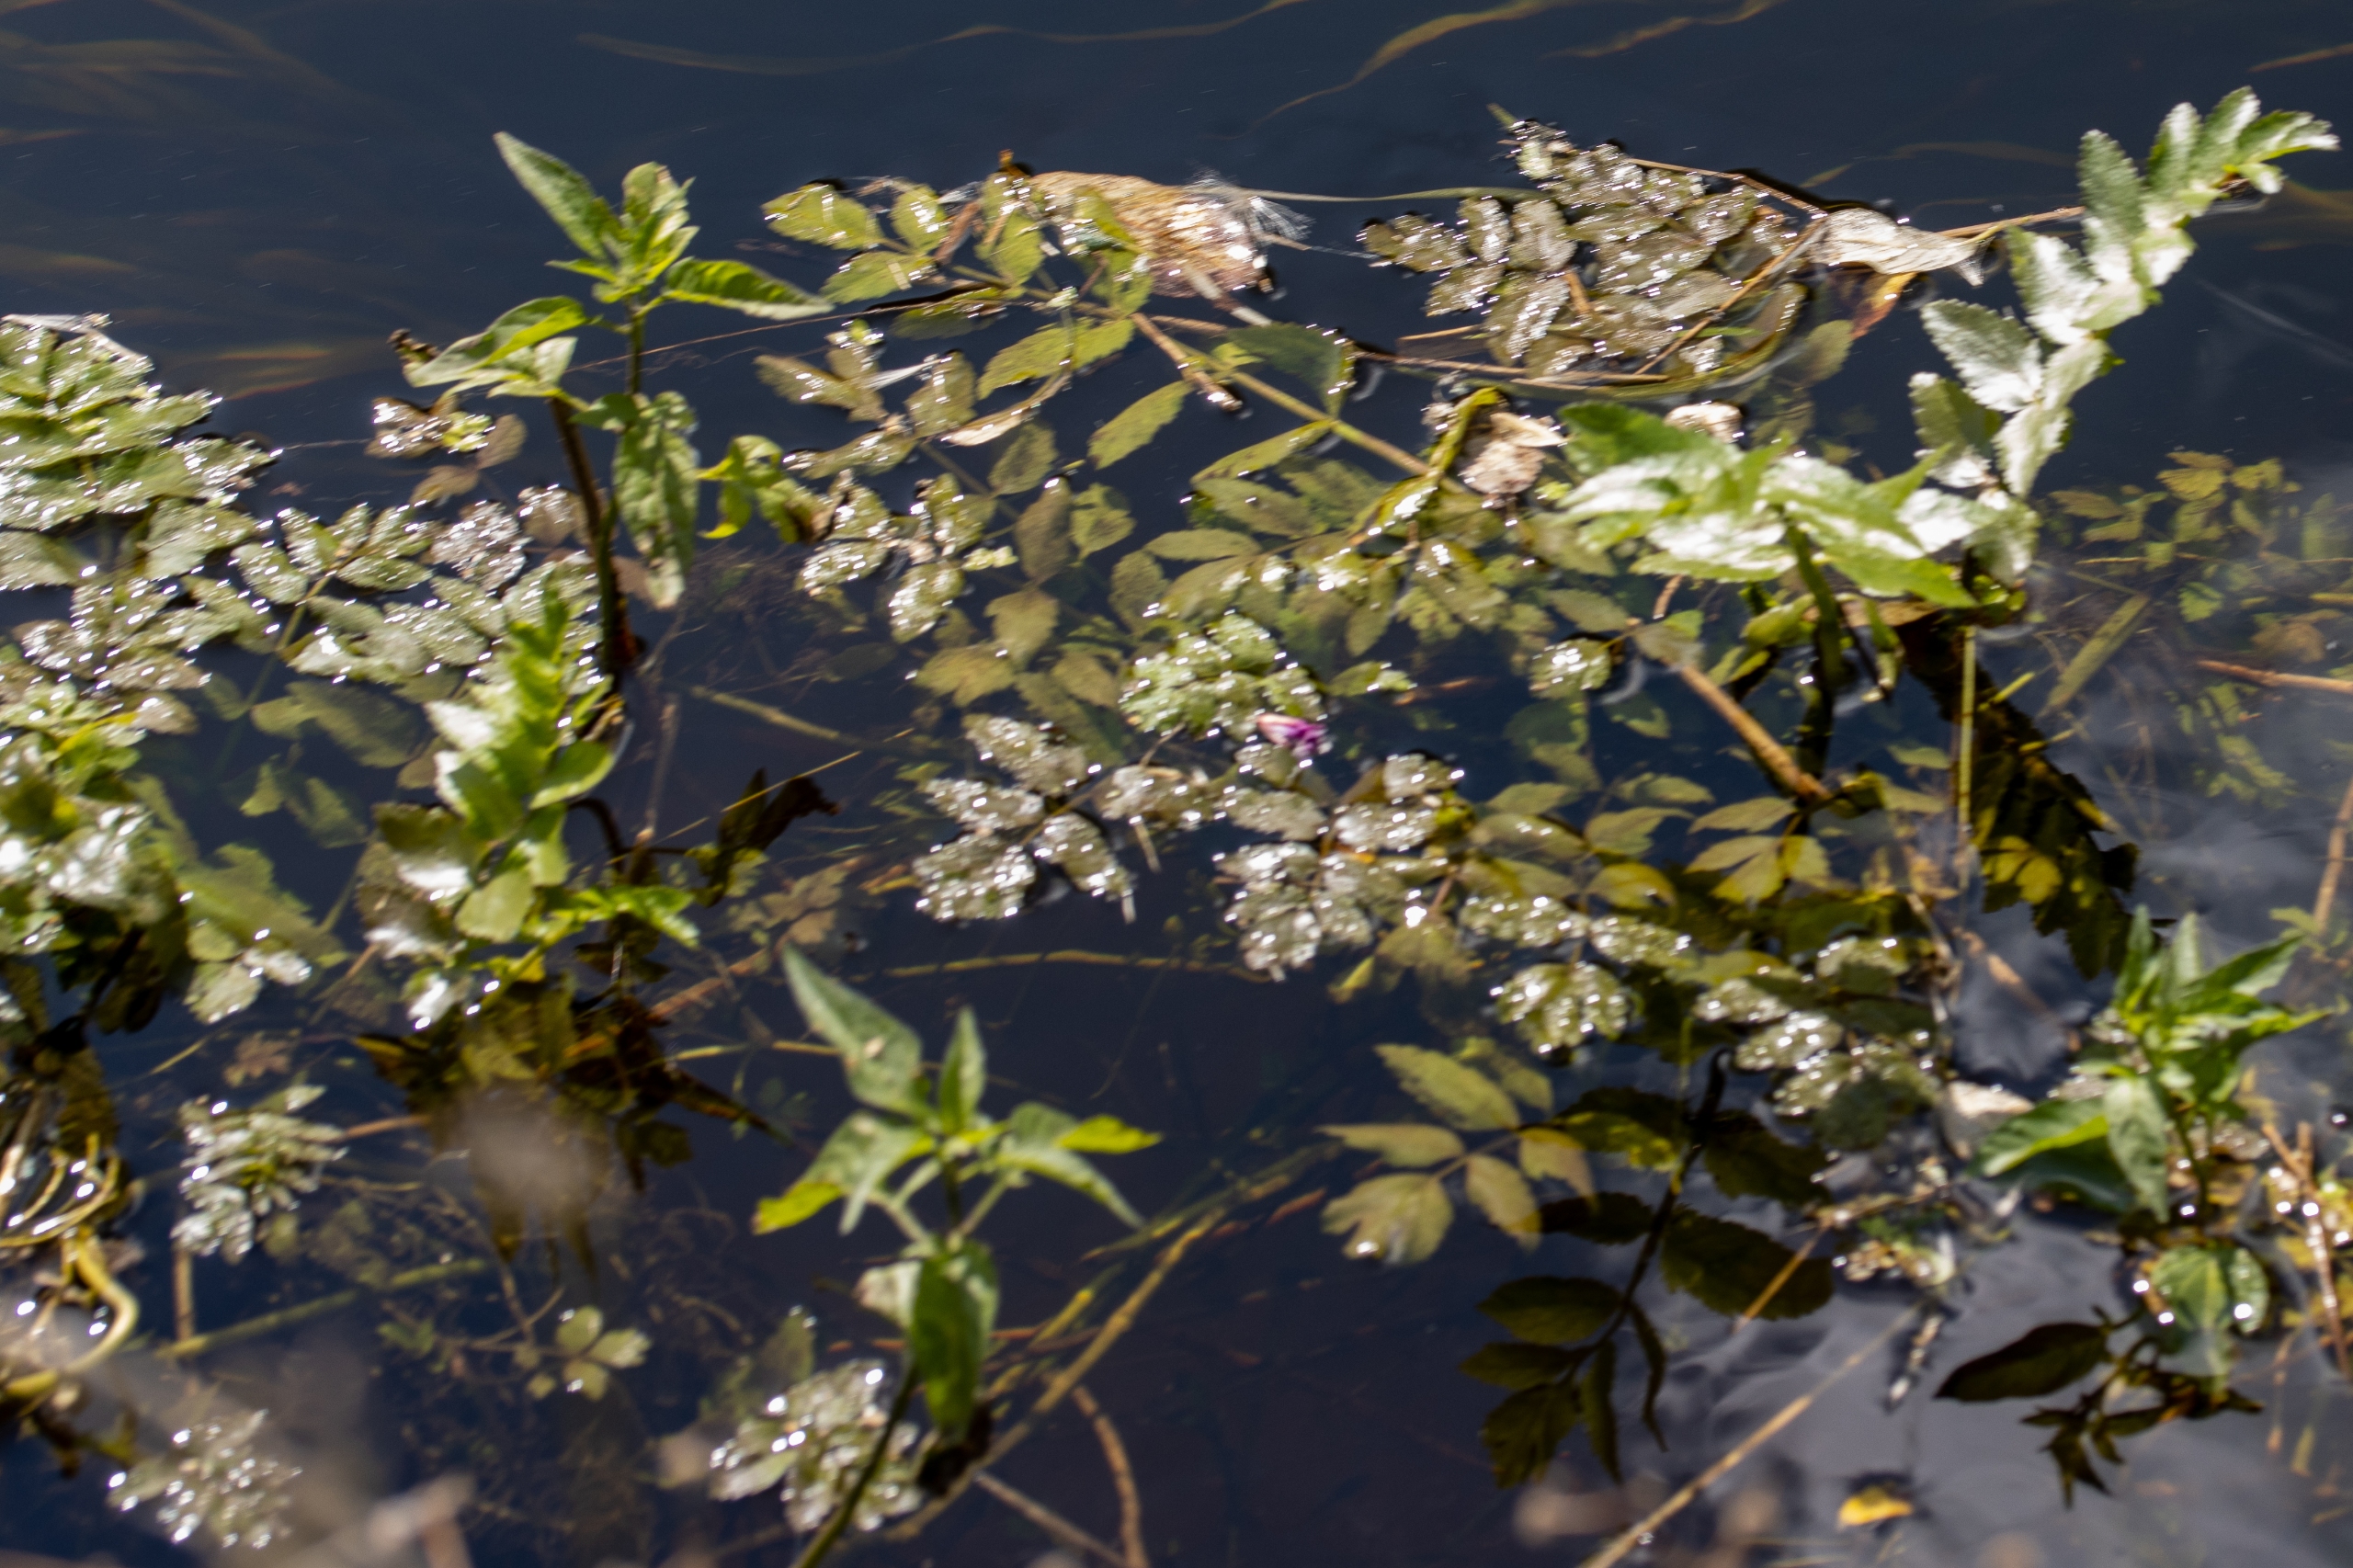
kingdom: Plantae
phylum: Tracheophyta
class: Magnoliopsida
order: Apiales
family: Apiaceae
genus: Berula
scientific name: Berula erecta
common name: Sideskærm
